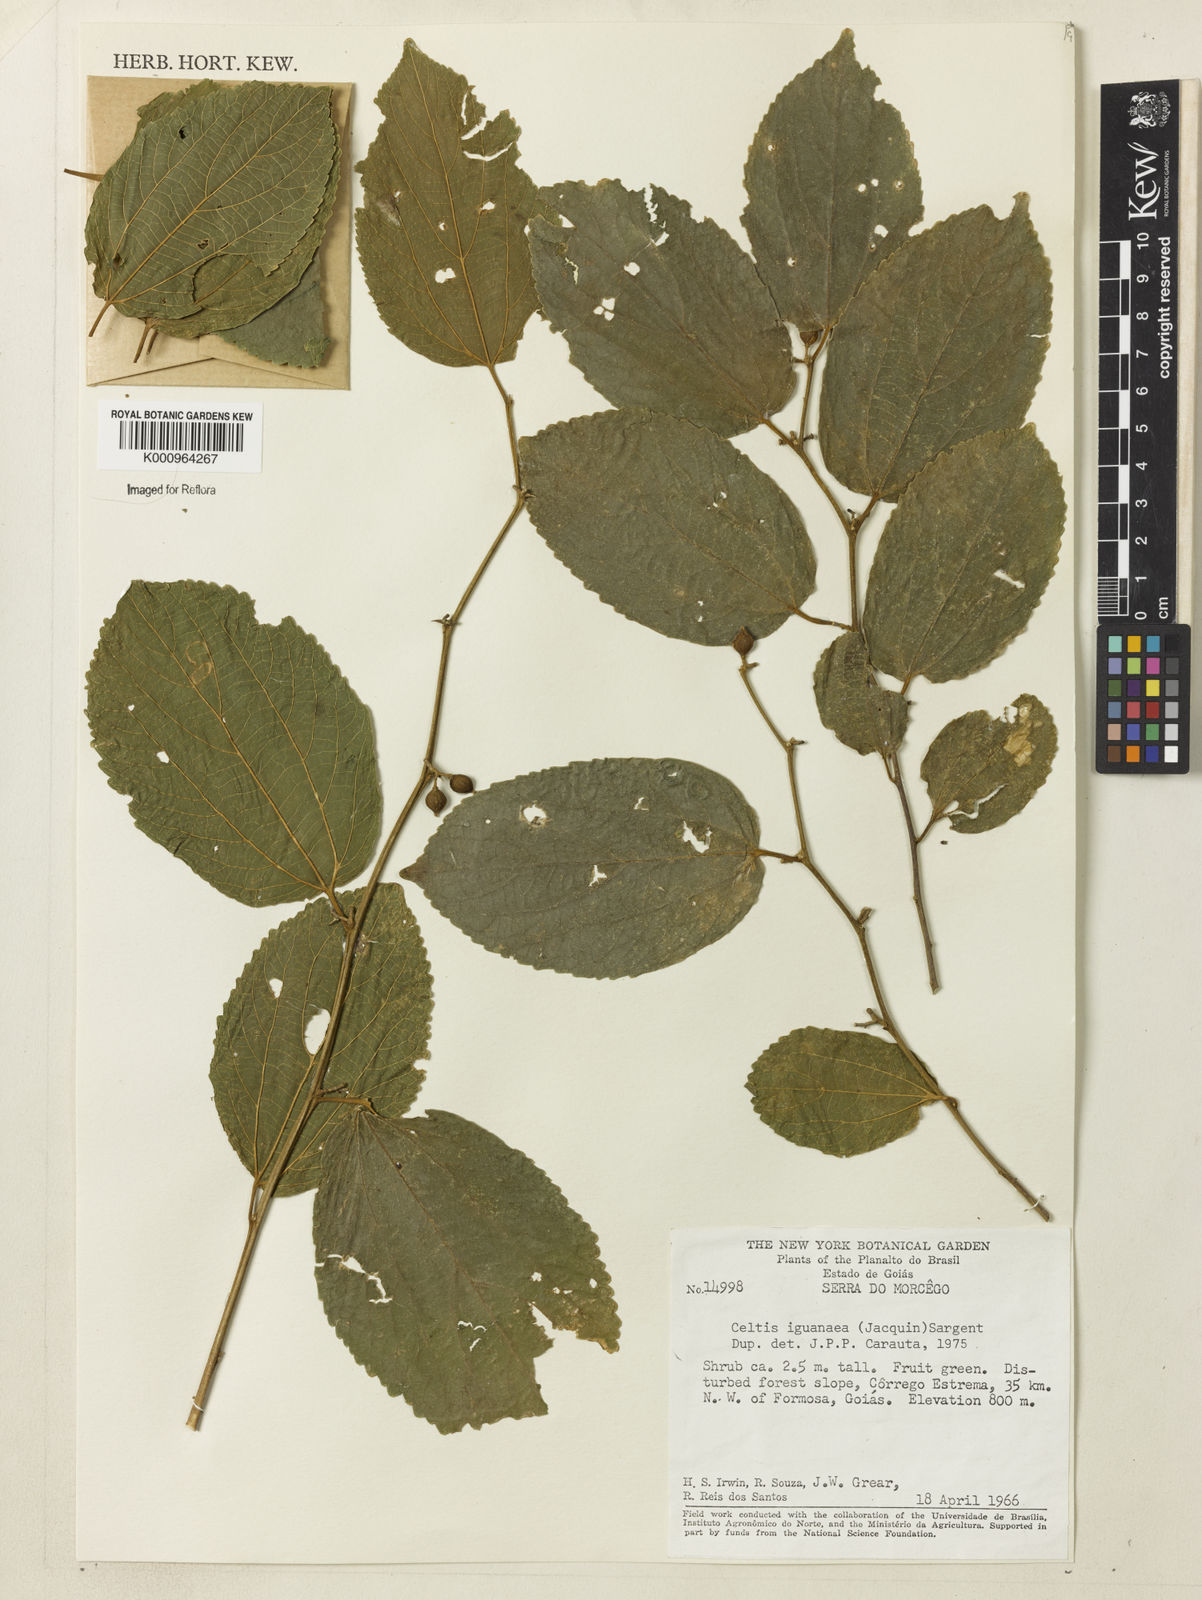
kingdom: Plantae
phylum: Tracheophyta
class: Magnoliopsida
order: Rosales
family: Cannabaceae
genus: Celtis
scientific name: Celtis iguanaea
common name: Iguana hackberry
